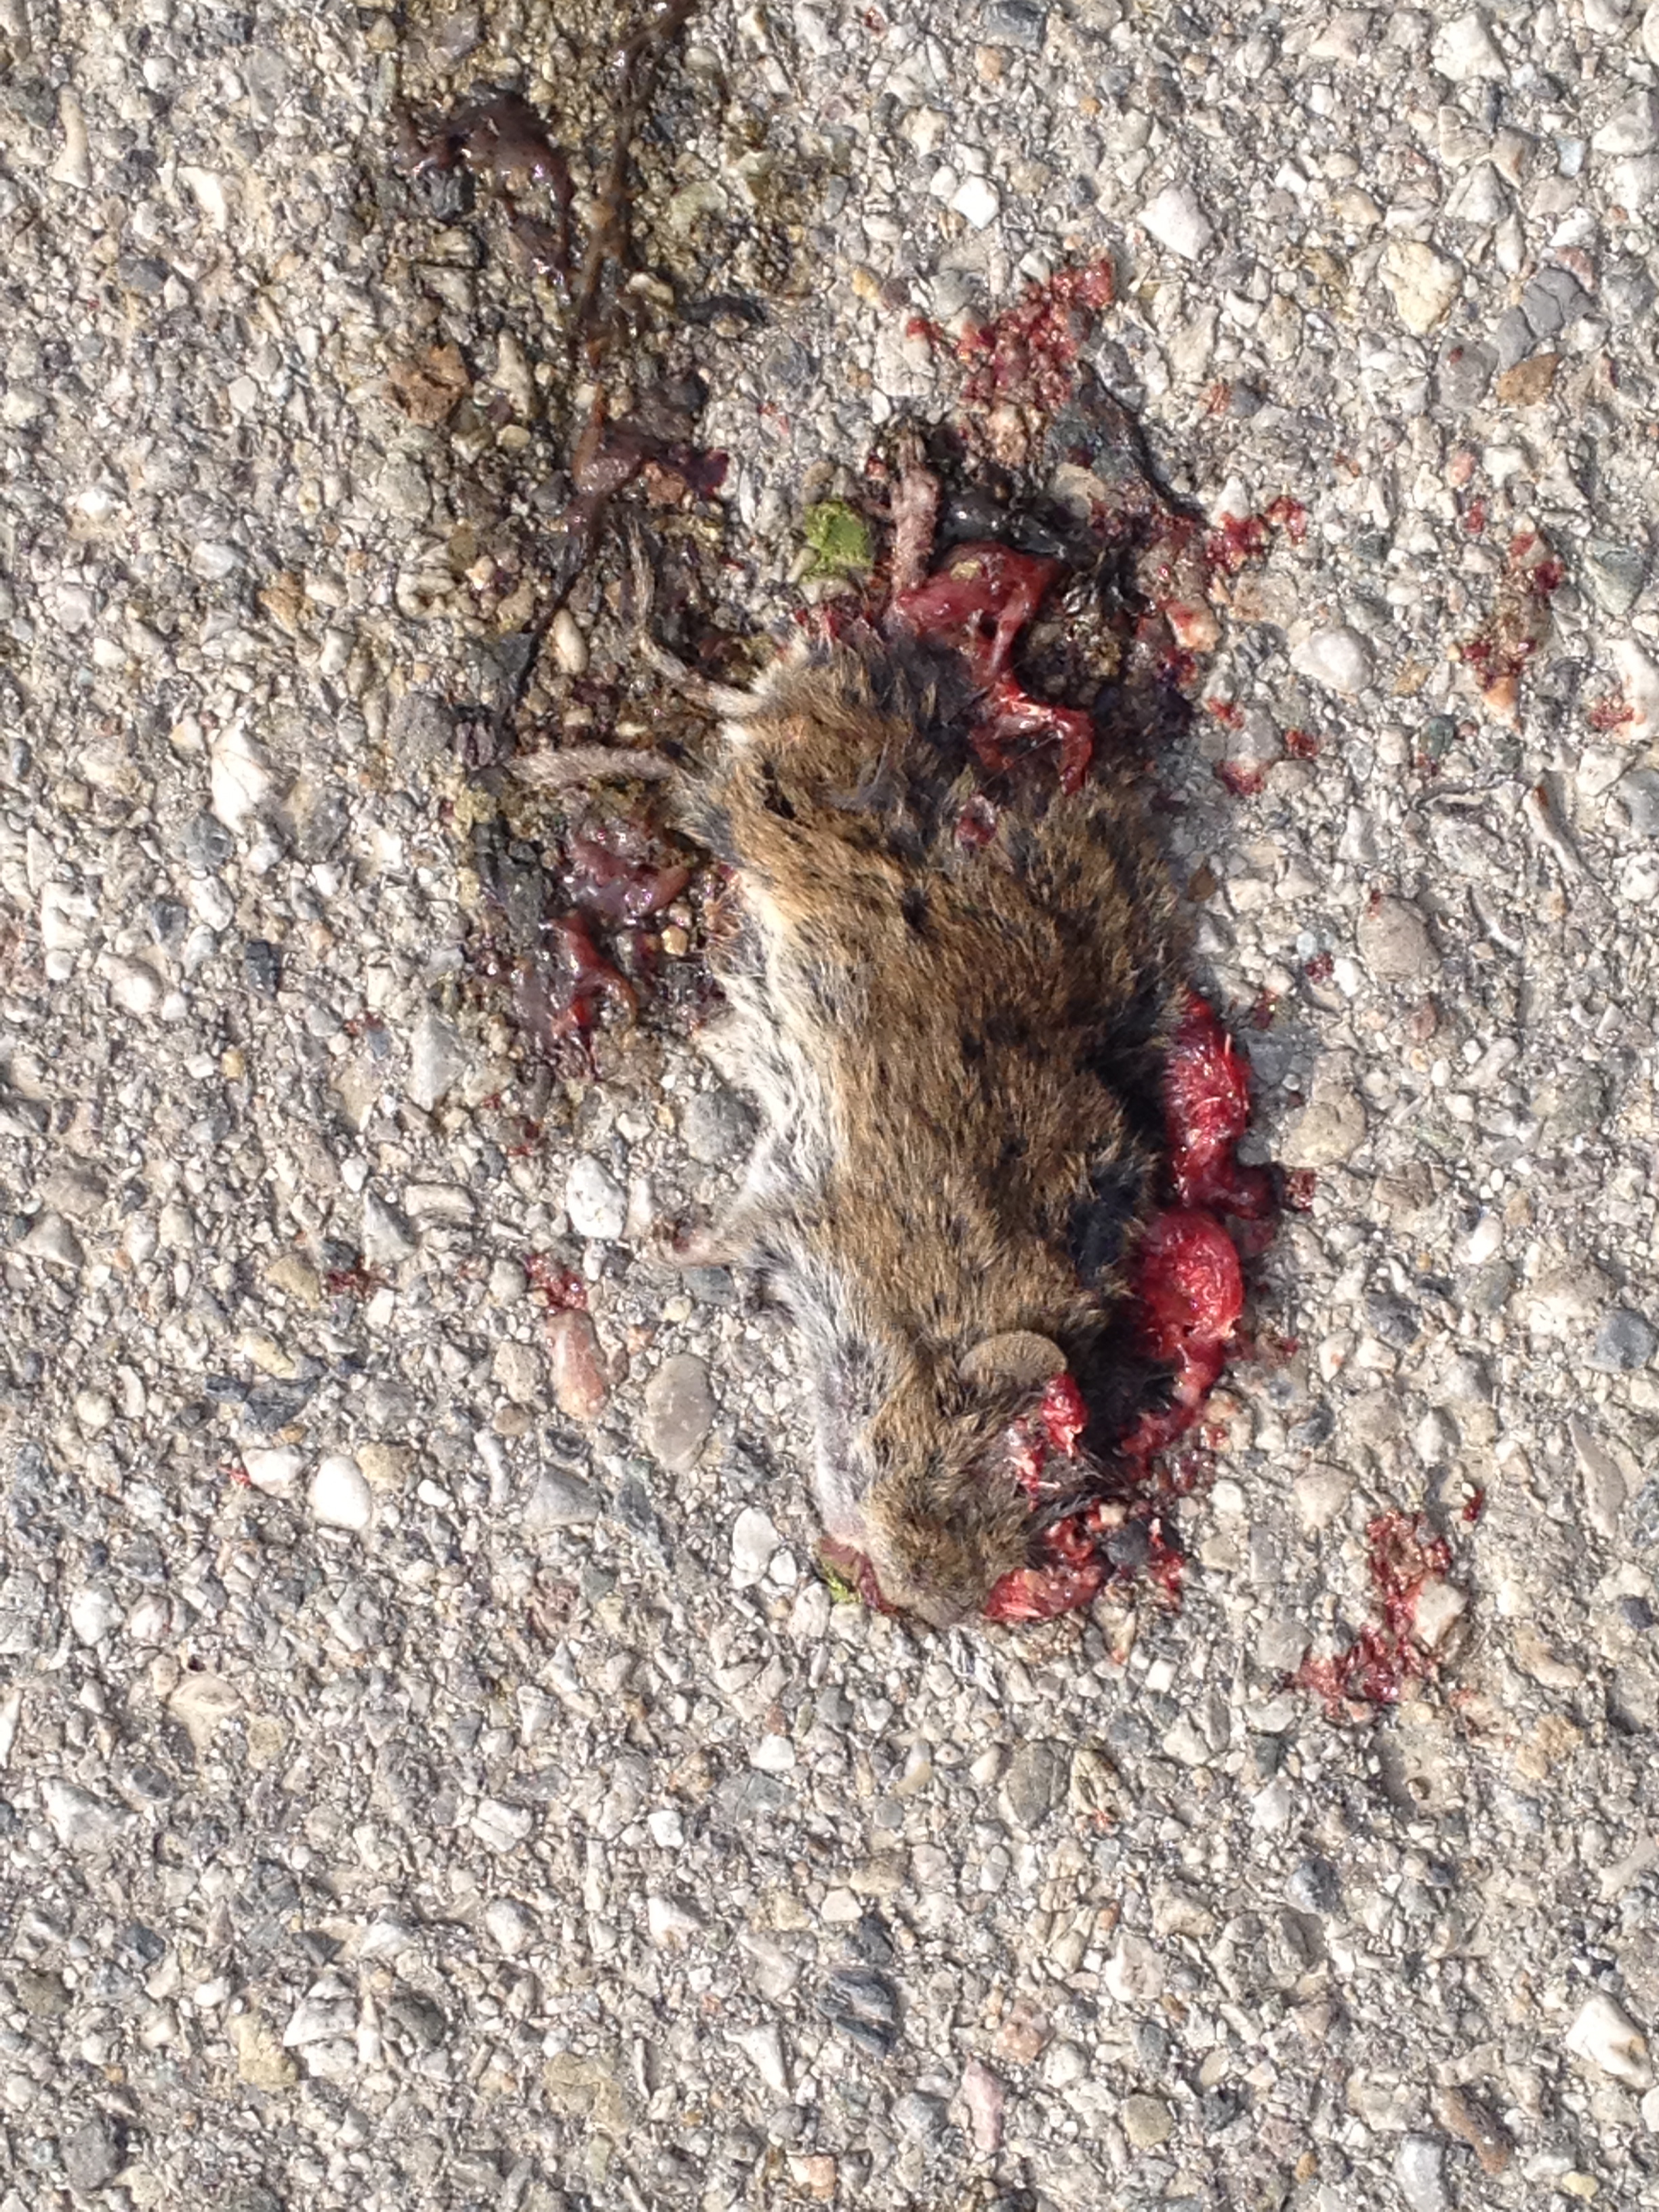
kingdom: Animalia
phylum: Chordata
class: Mammalia
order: Rodentia
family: Cricetidae
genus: Myodes
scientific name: Myodes glareolus
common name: Bank vole
